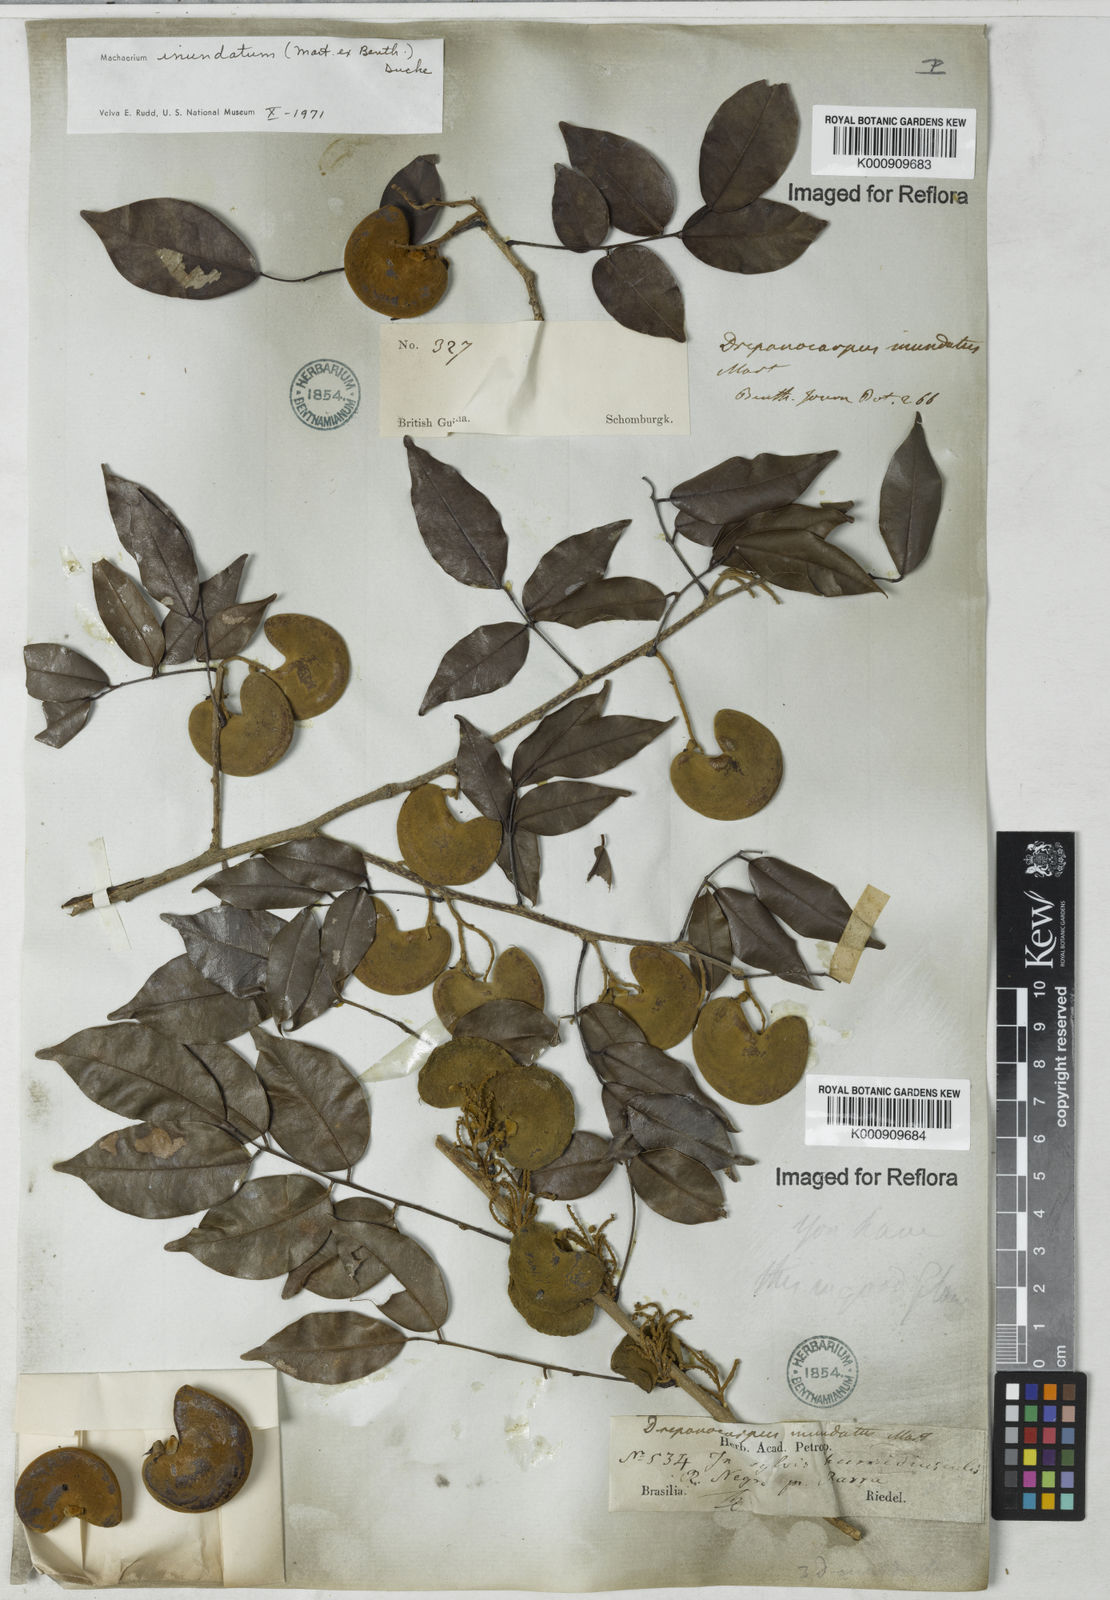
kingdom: Plantae
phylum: Tracheophyta
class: Magnoliopsida
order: Fabales
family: Fabaceae
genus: Machaerium
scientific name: Machaerium inundatum
